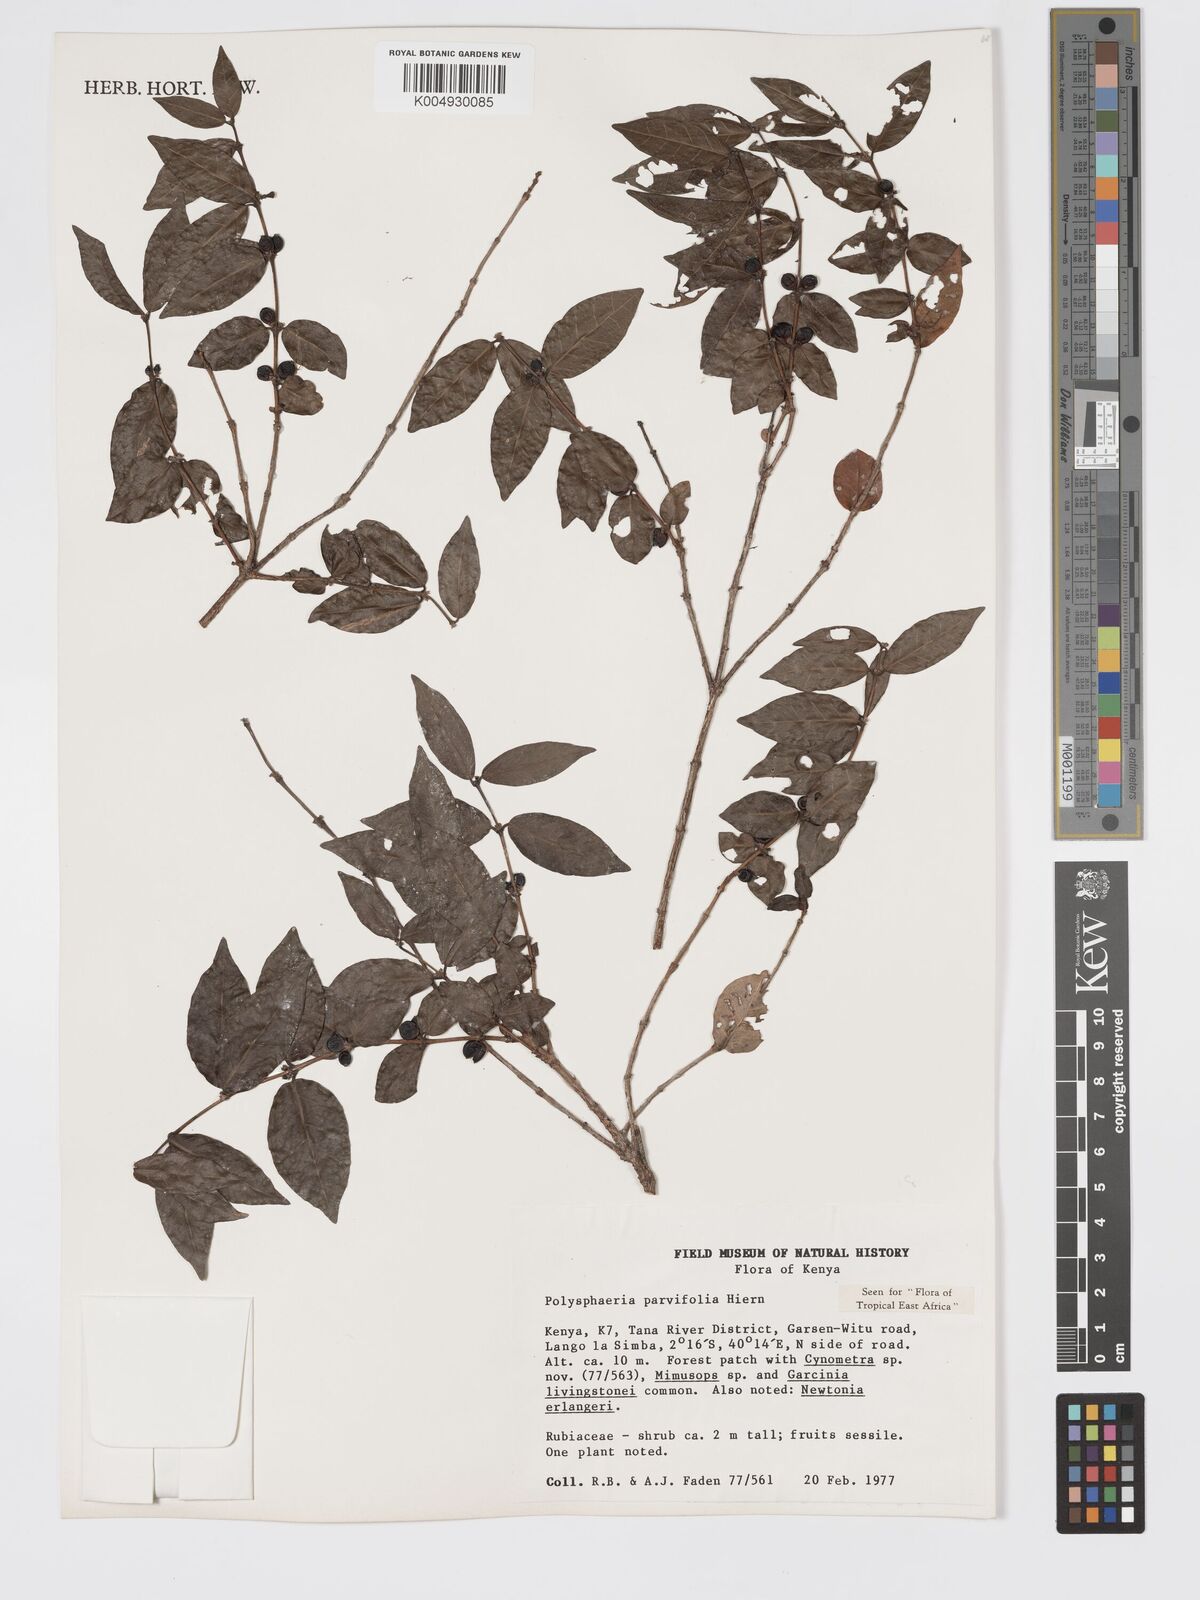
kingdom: Plantae
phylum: Tracheophyta
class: Magnoliopsida
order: Gentianales
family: Rubiaceae
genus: Polysphaeria
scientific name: Polysphaeria parvifolia
